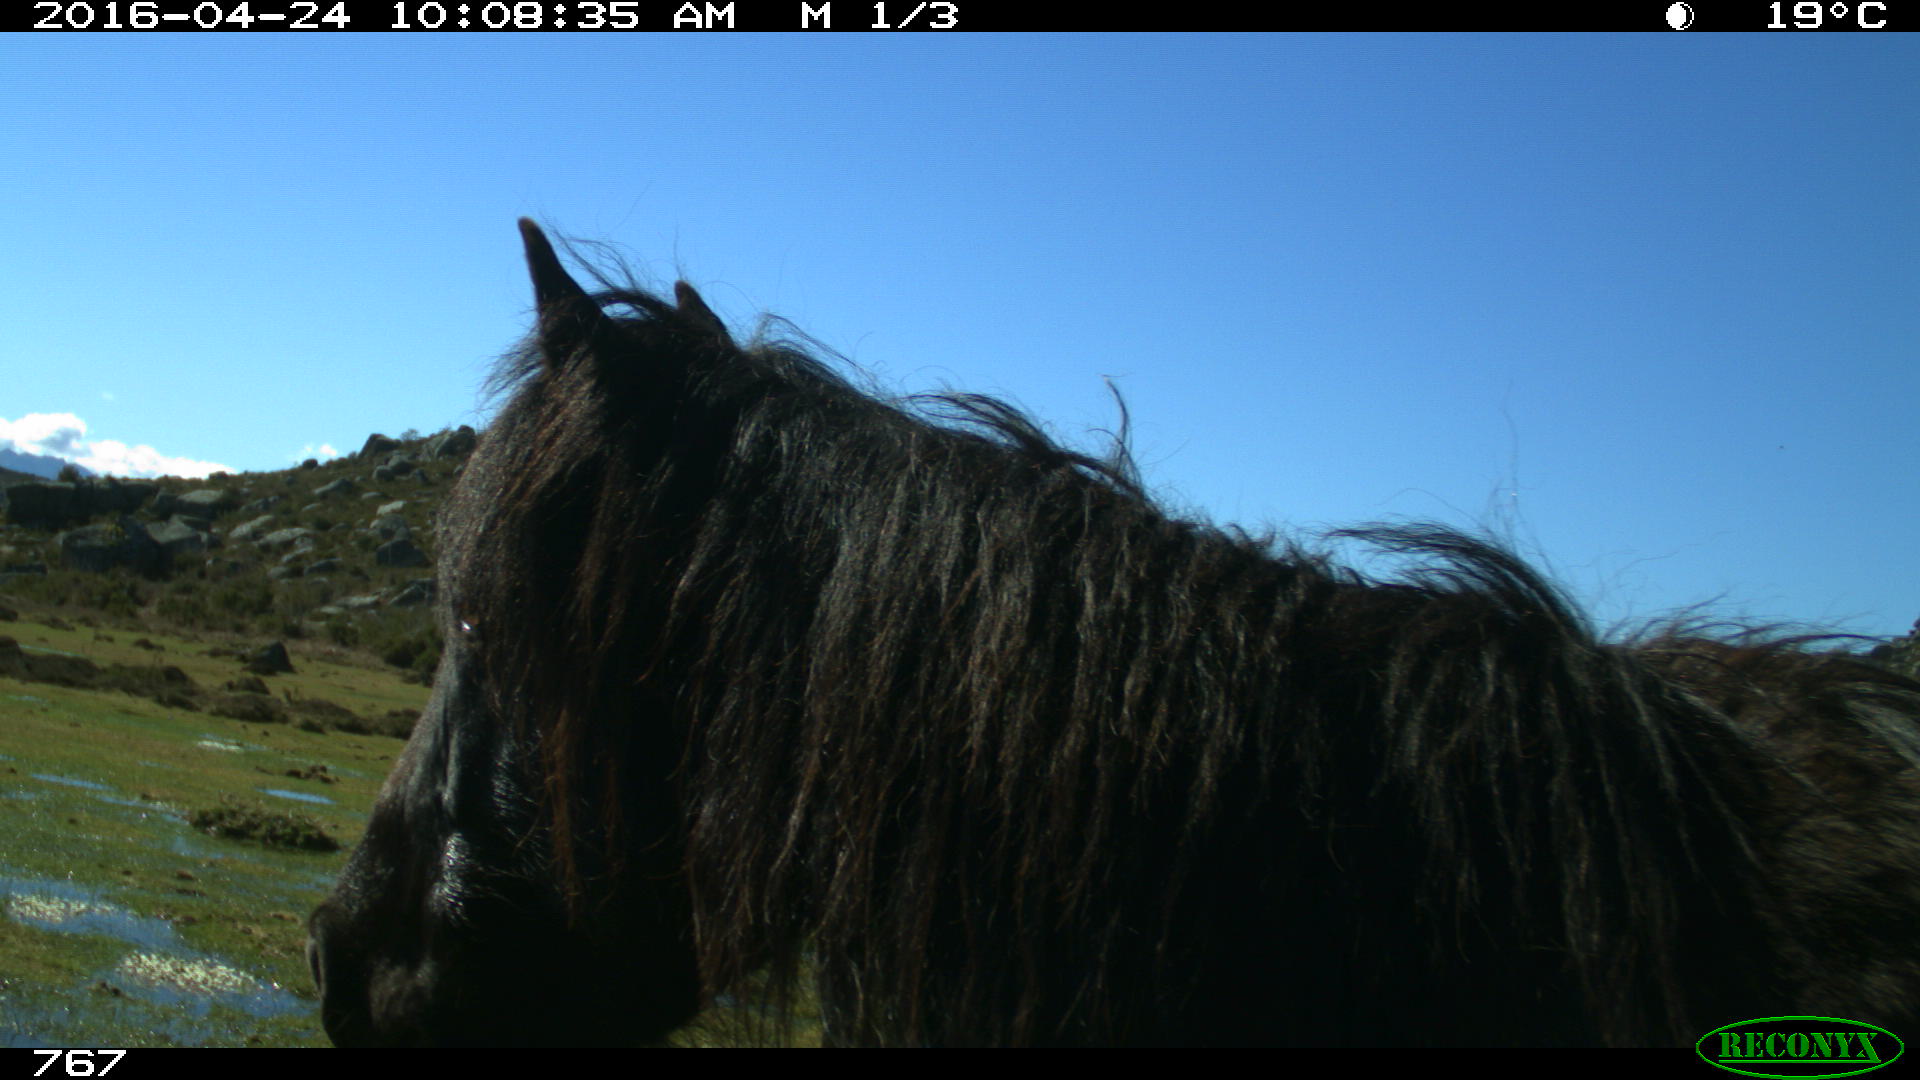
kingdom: Animalia
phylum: Chordata
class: Mammalia
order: Perissodactyla
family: Equidae
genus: Equus
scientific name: Equus caballus
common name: Horse
